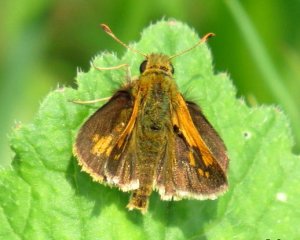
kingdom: Animalia
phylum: Arthropoda
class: Insecta
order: Lepidoptera
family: Hesperiidae
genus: Polites
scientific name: Polites coras
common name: Peck's Skipper
